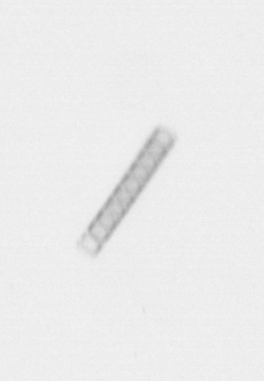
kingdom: Chromista
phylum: Ochrophyta
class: Bacillariophyceae
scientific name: Bacillariophyceae
